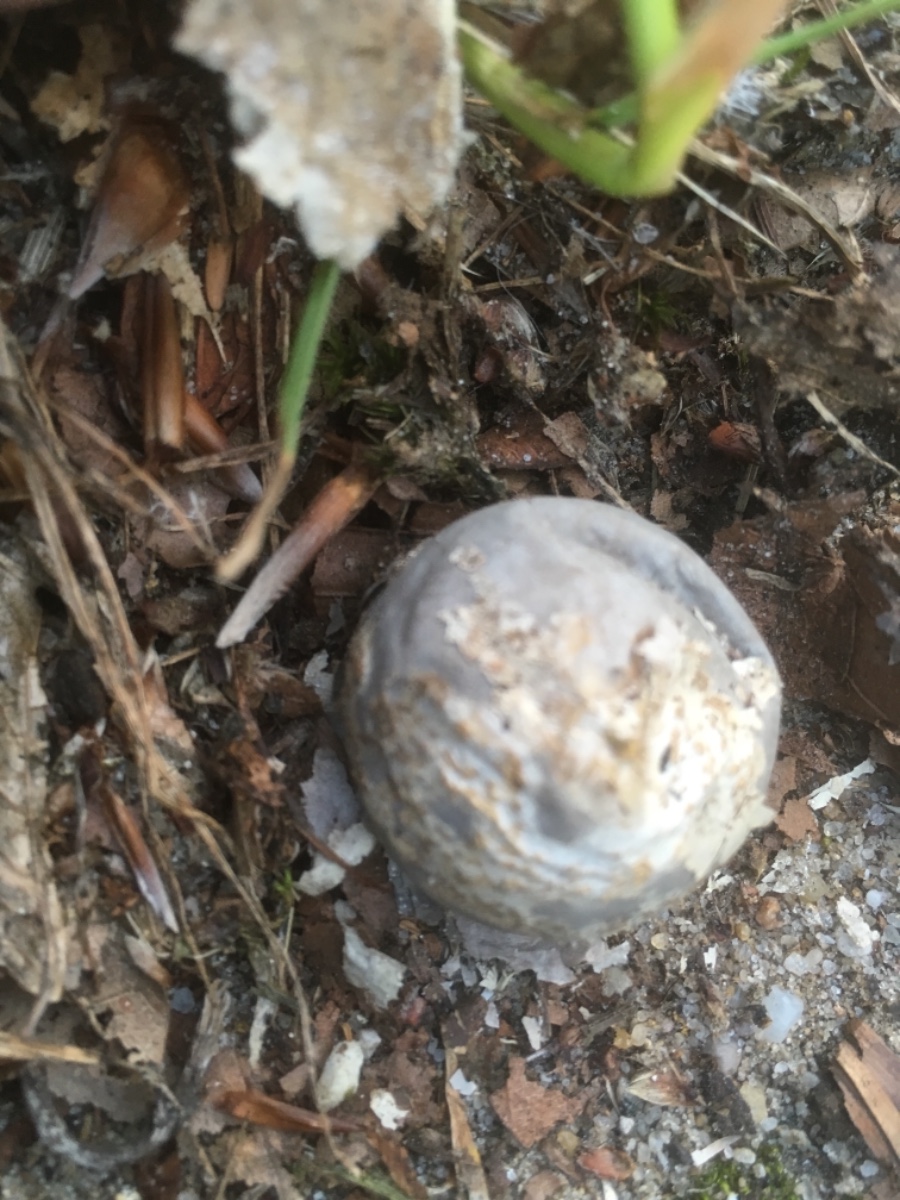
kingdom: Fungi
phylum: Basidiomycota
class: Agaricomycetes
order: Agaricales
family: Lycoperdaceae
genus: Bovista
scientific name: Bovista plumbea
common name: blygrå bovist
